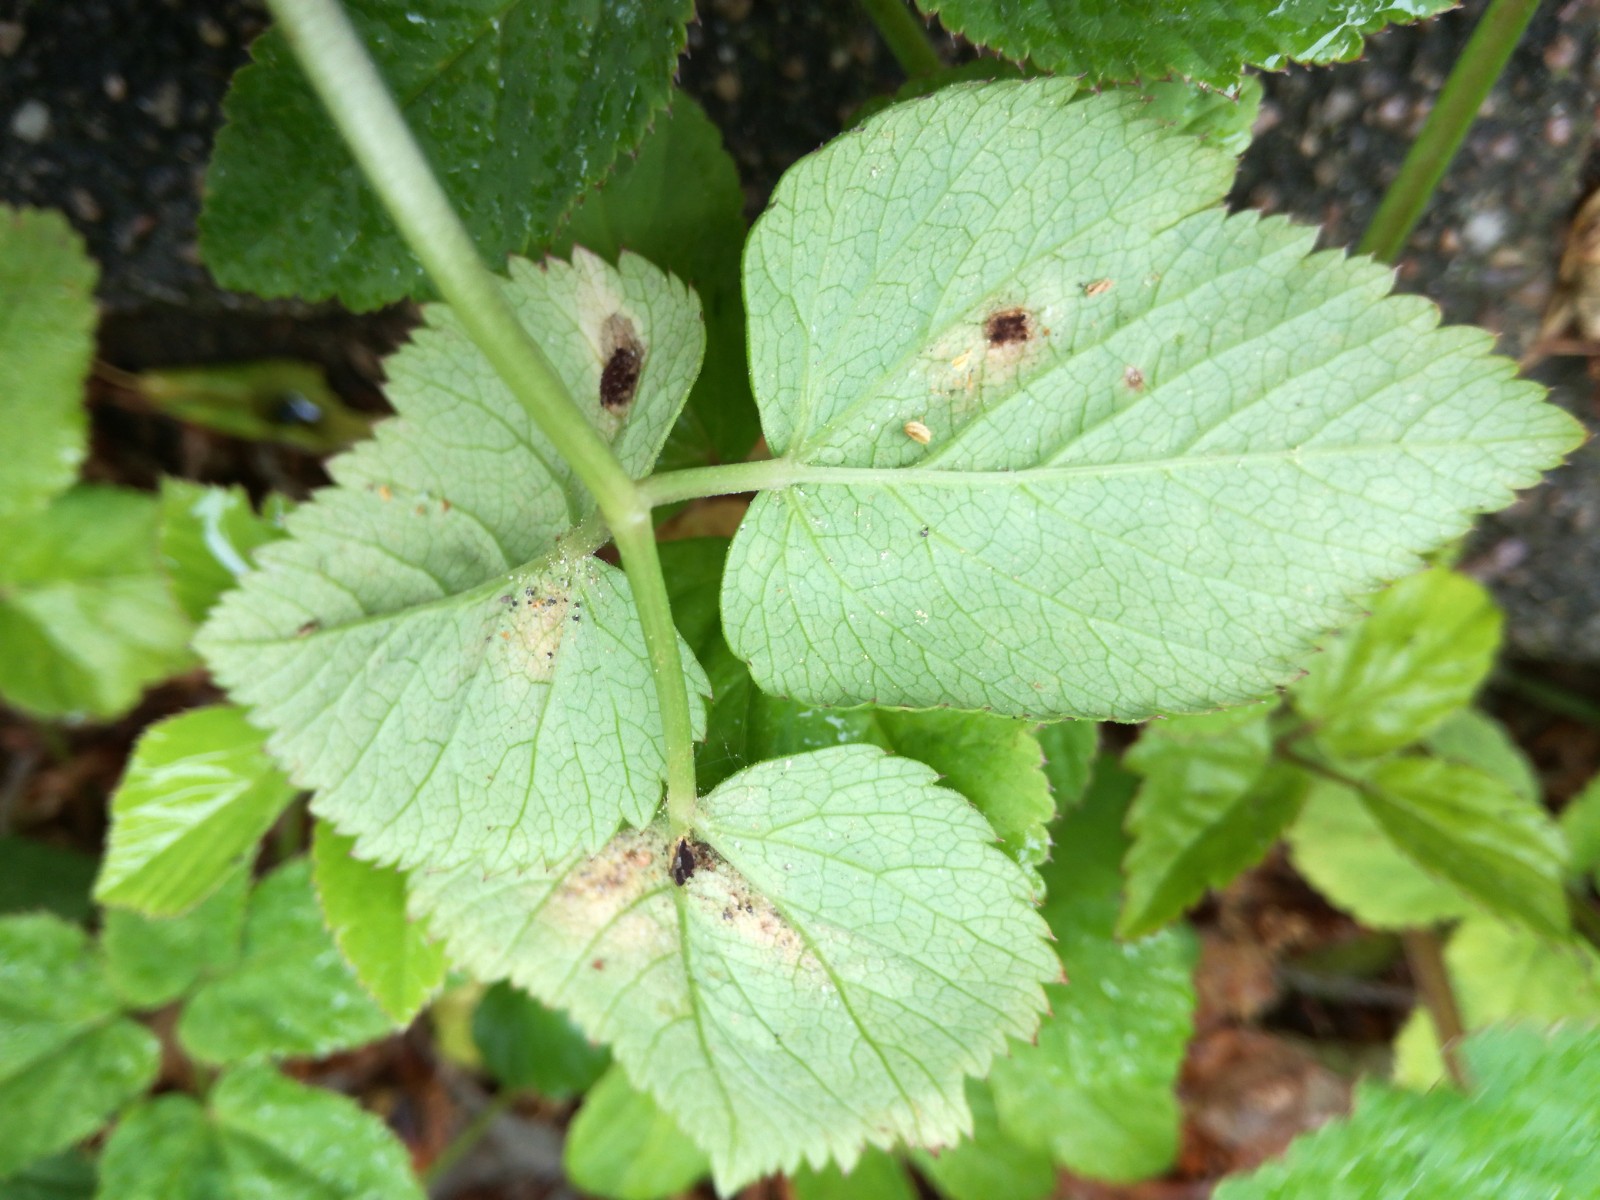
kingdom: Fungi
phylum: Basidiomycota
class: Pucciniomycetes
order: Pucciniales
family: Pucciniaceae
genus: Puccinia
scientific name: Puccinia
